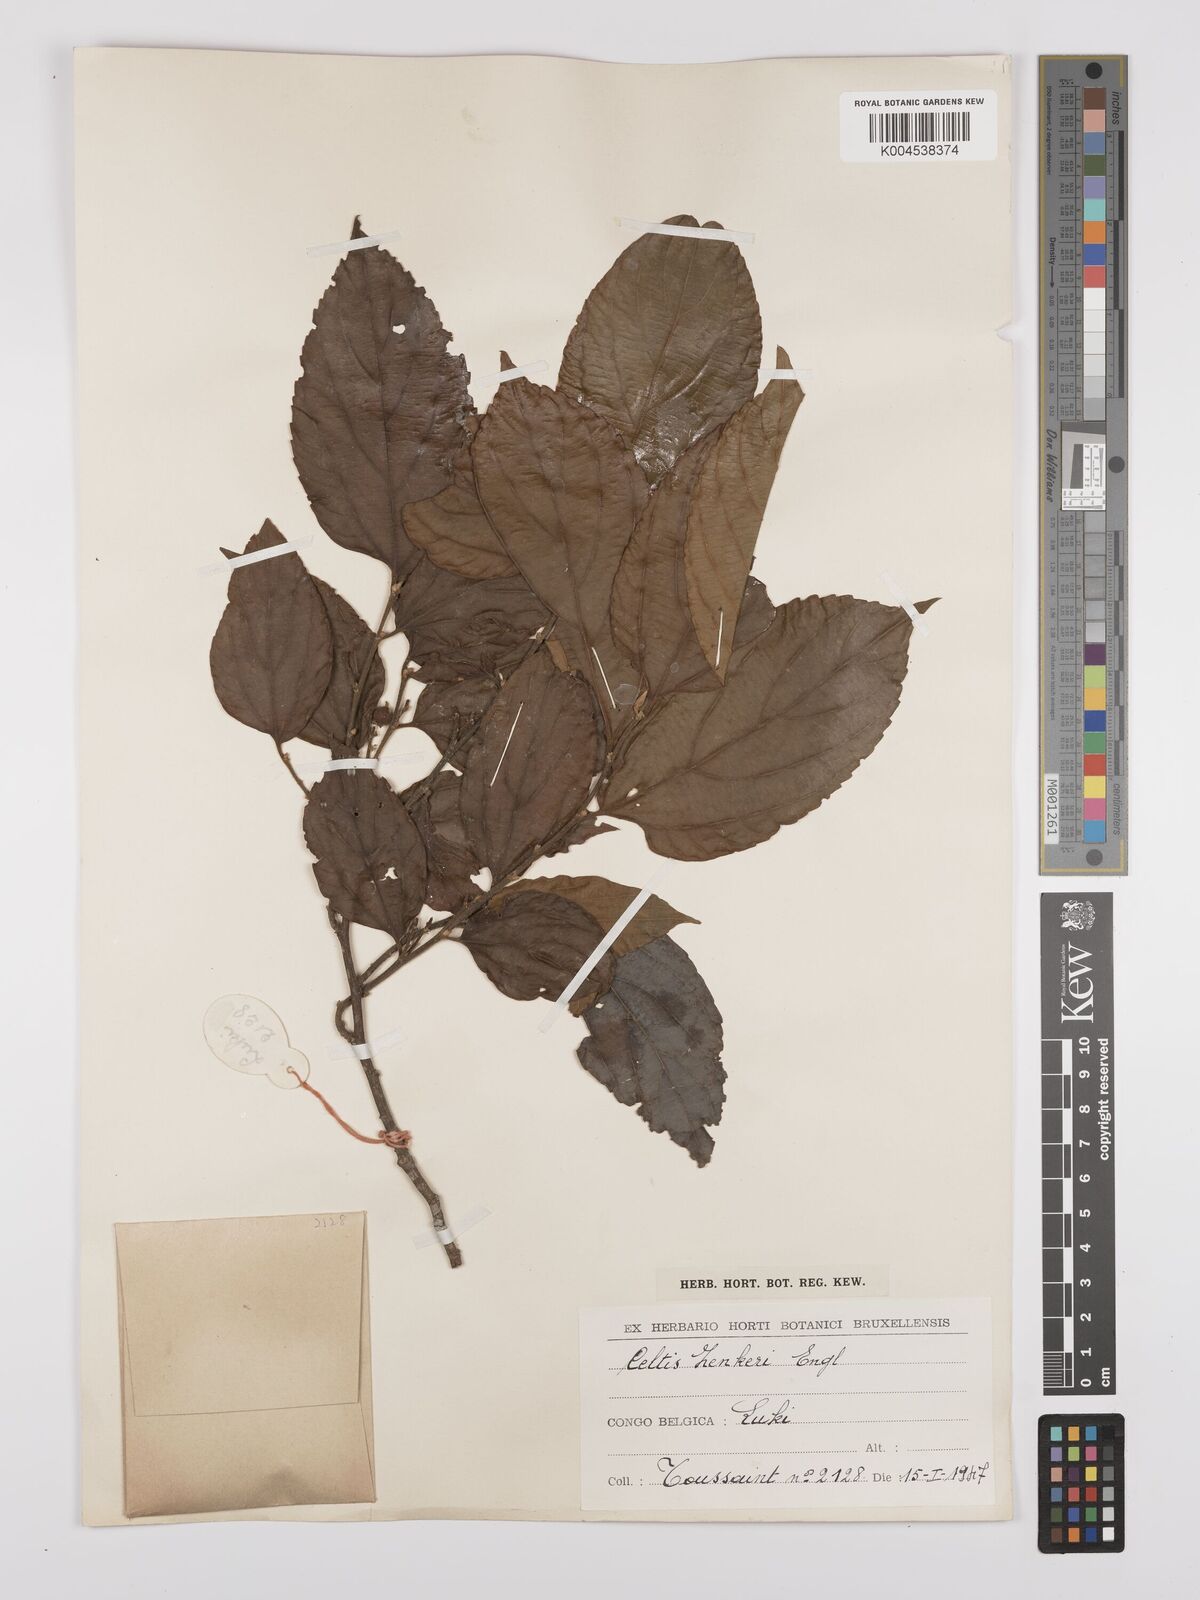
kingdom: Plantae
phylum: Tracheophyta
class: Magnoliopsida
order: Rosales
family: Cannabaceae
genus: Celtis
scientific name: Celtis zenkeri
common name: African celtis
